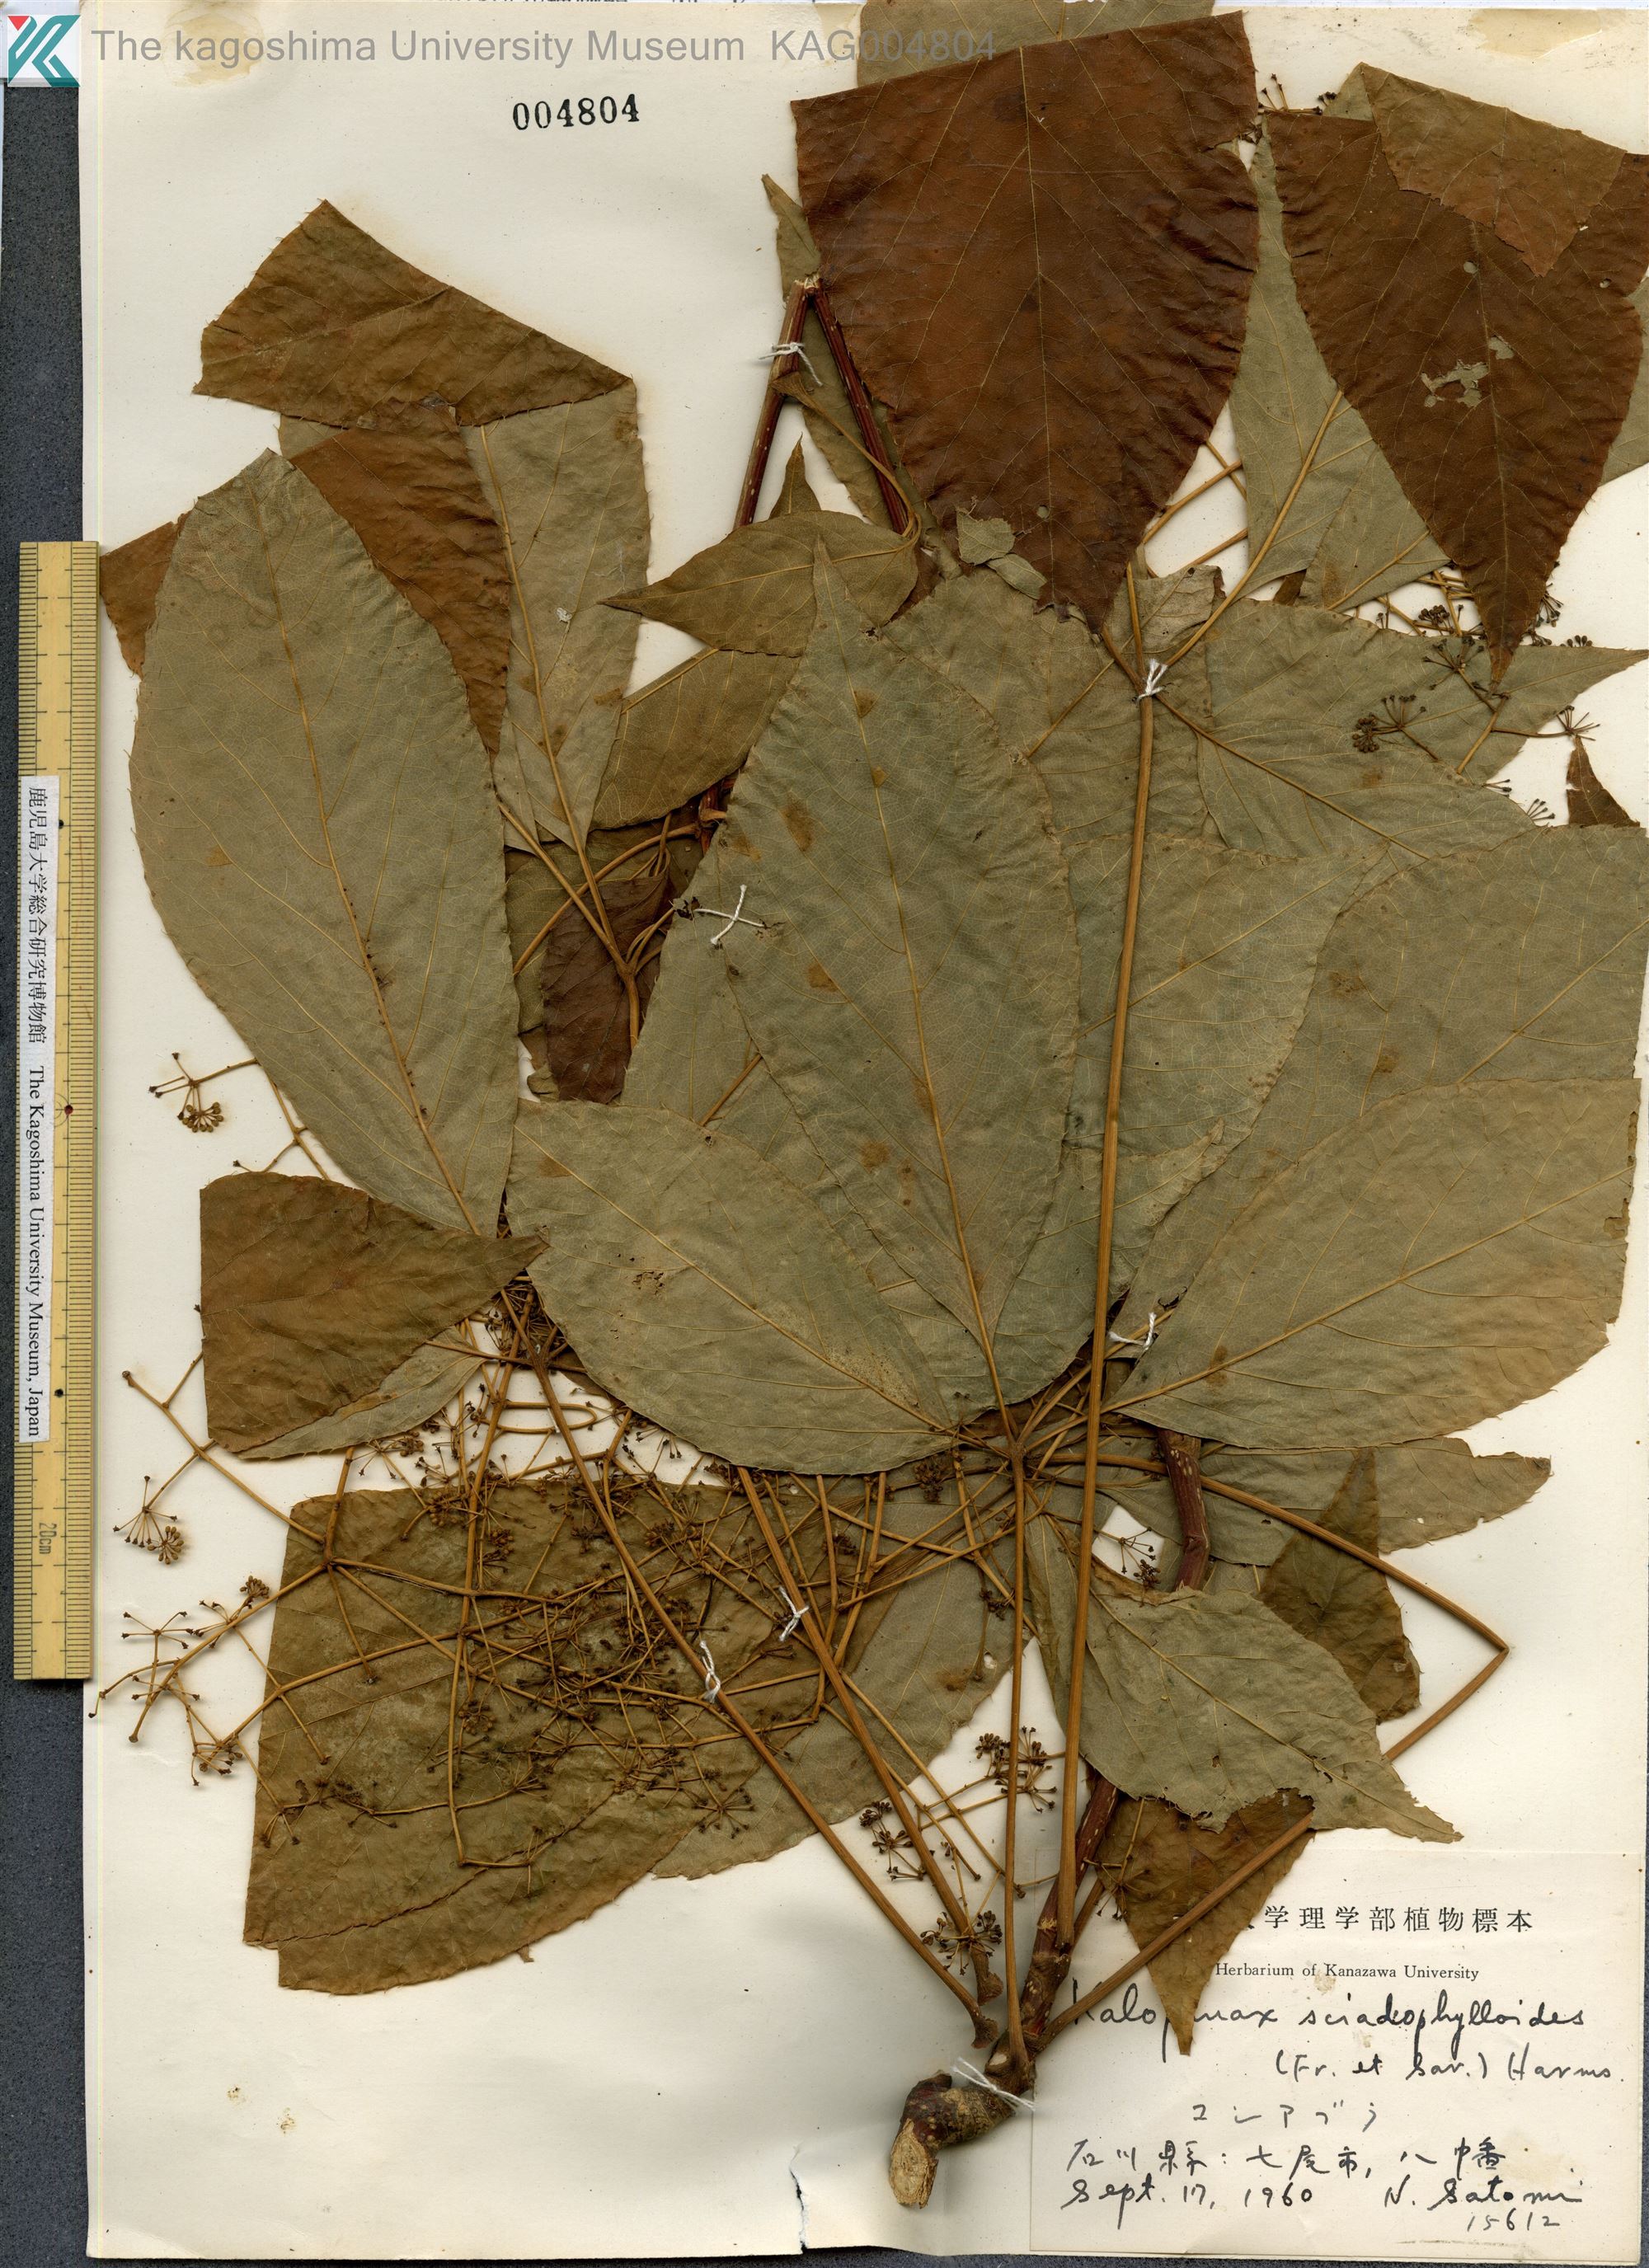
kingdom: Plantae
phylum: Tracheophyta
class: Magnoliopsida
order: Apiales
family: Araliaceae
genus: Chengiopanax
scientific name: Chengiopanax sciadophylloides
